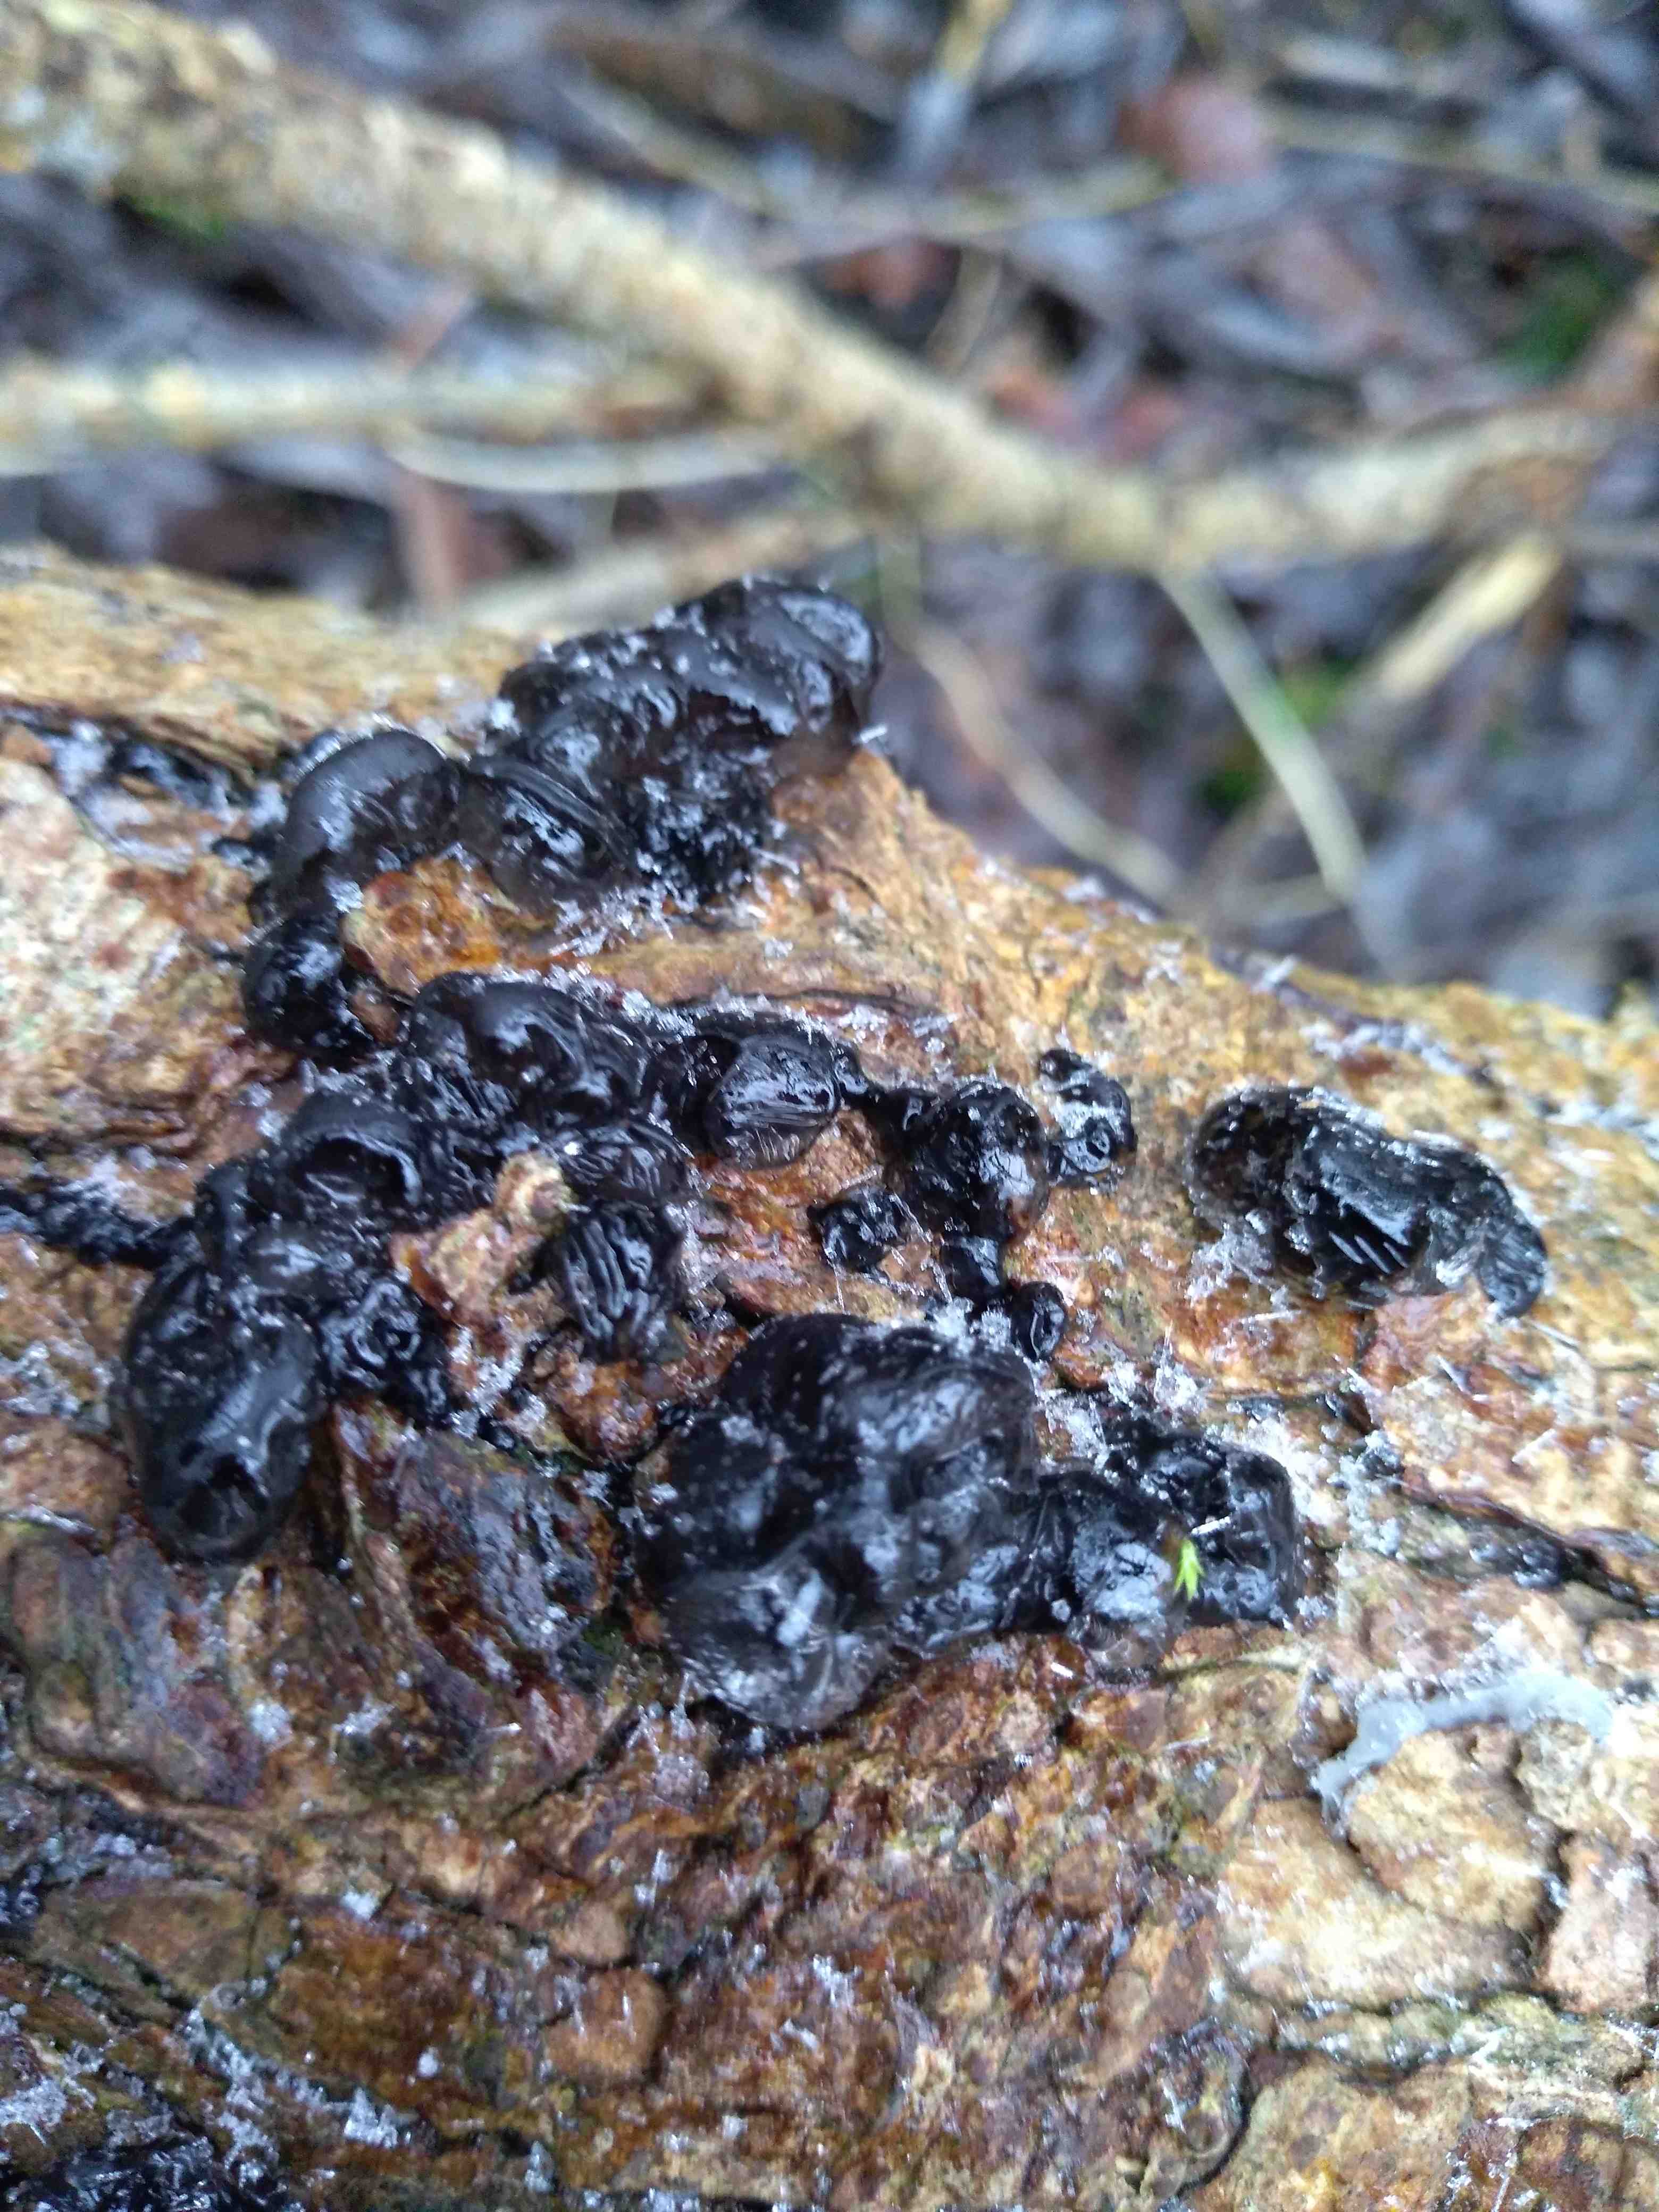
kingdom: Fungi
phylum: Basidiomycota
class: Agaricomycetes
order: Auriculariales
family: Auriculariaceae
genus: Exidia
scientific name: Exidia nigricans
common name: almindelig bævretop
